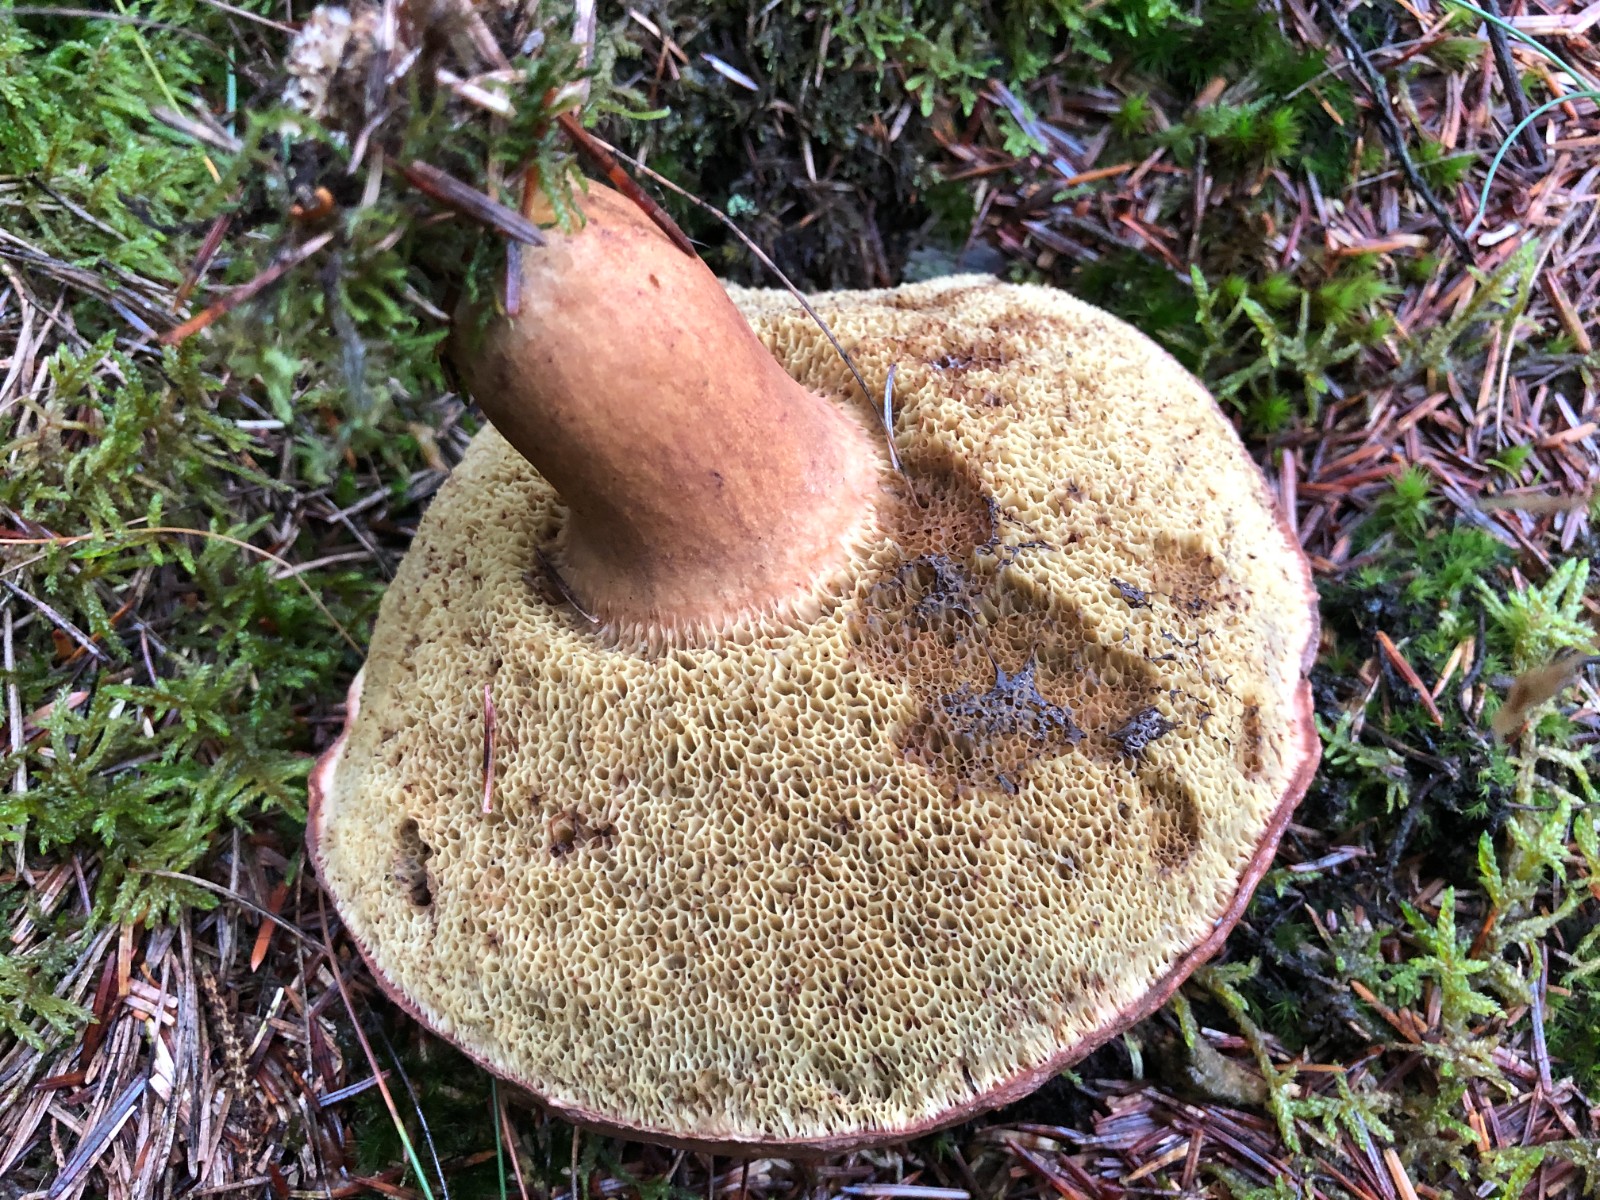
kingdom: Fungi
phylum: Basidiomycota
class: Agaricomycetes
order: Boletales
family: Boletaceae
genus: Imleria
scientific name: Imleria badia
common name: brunstokket rørhat
